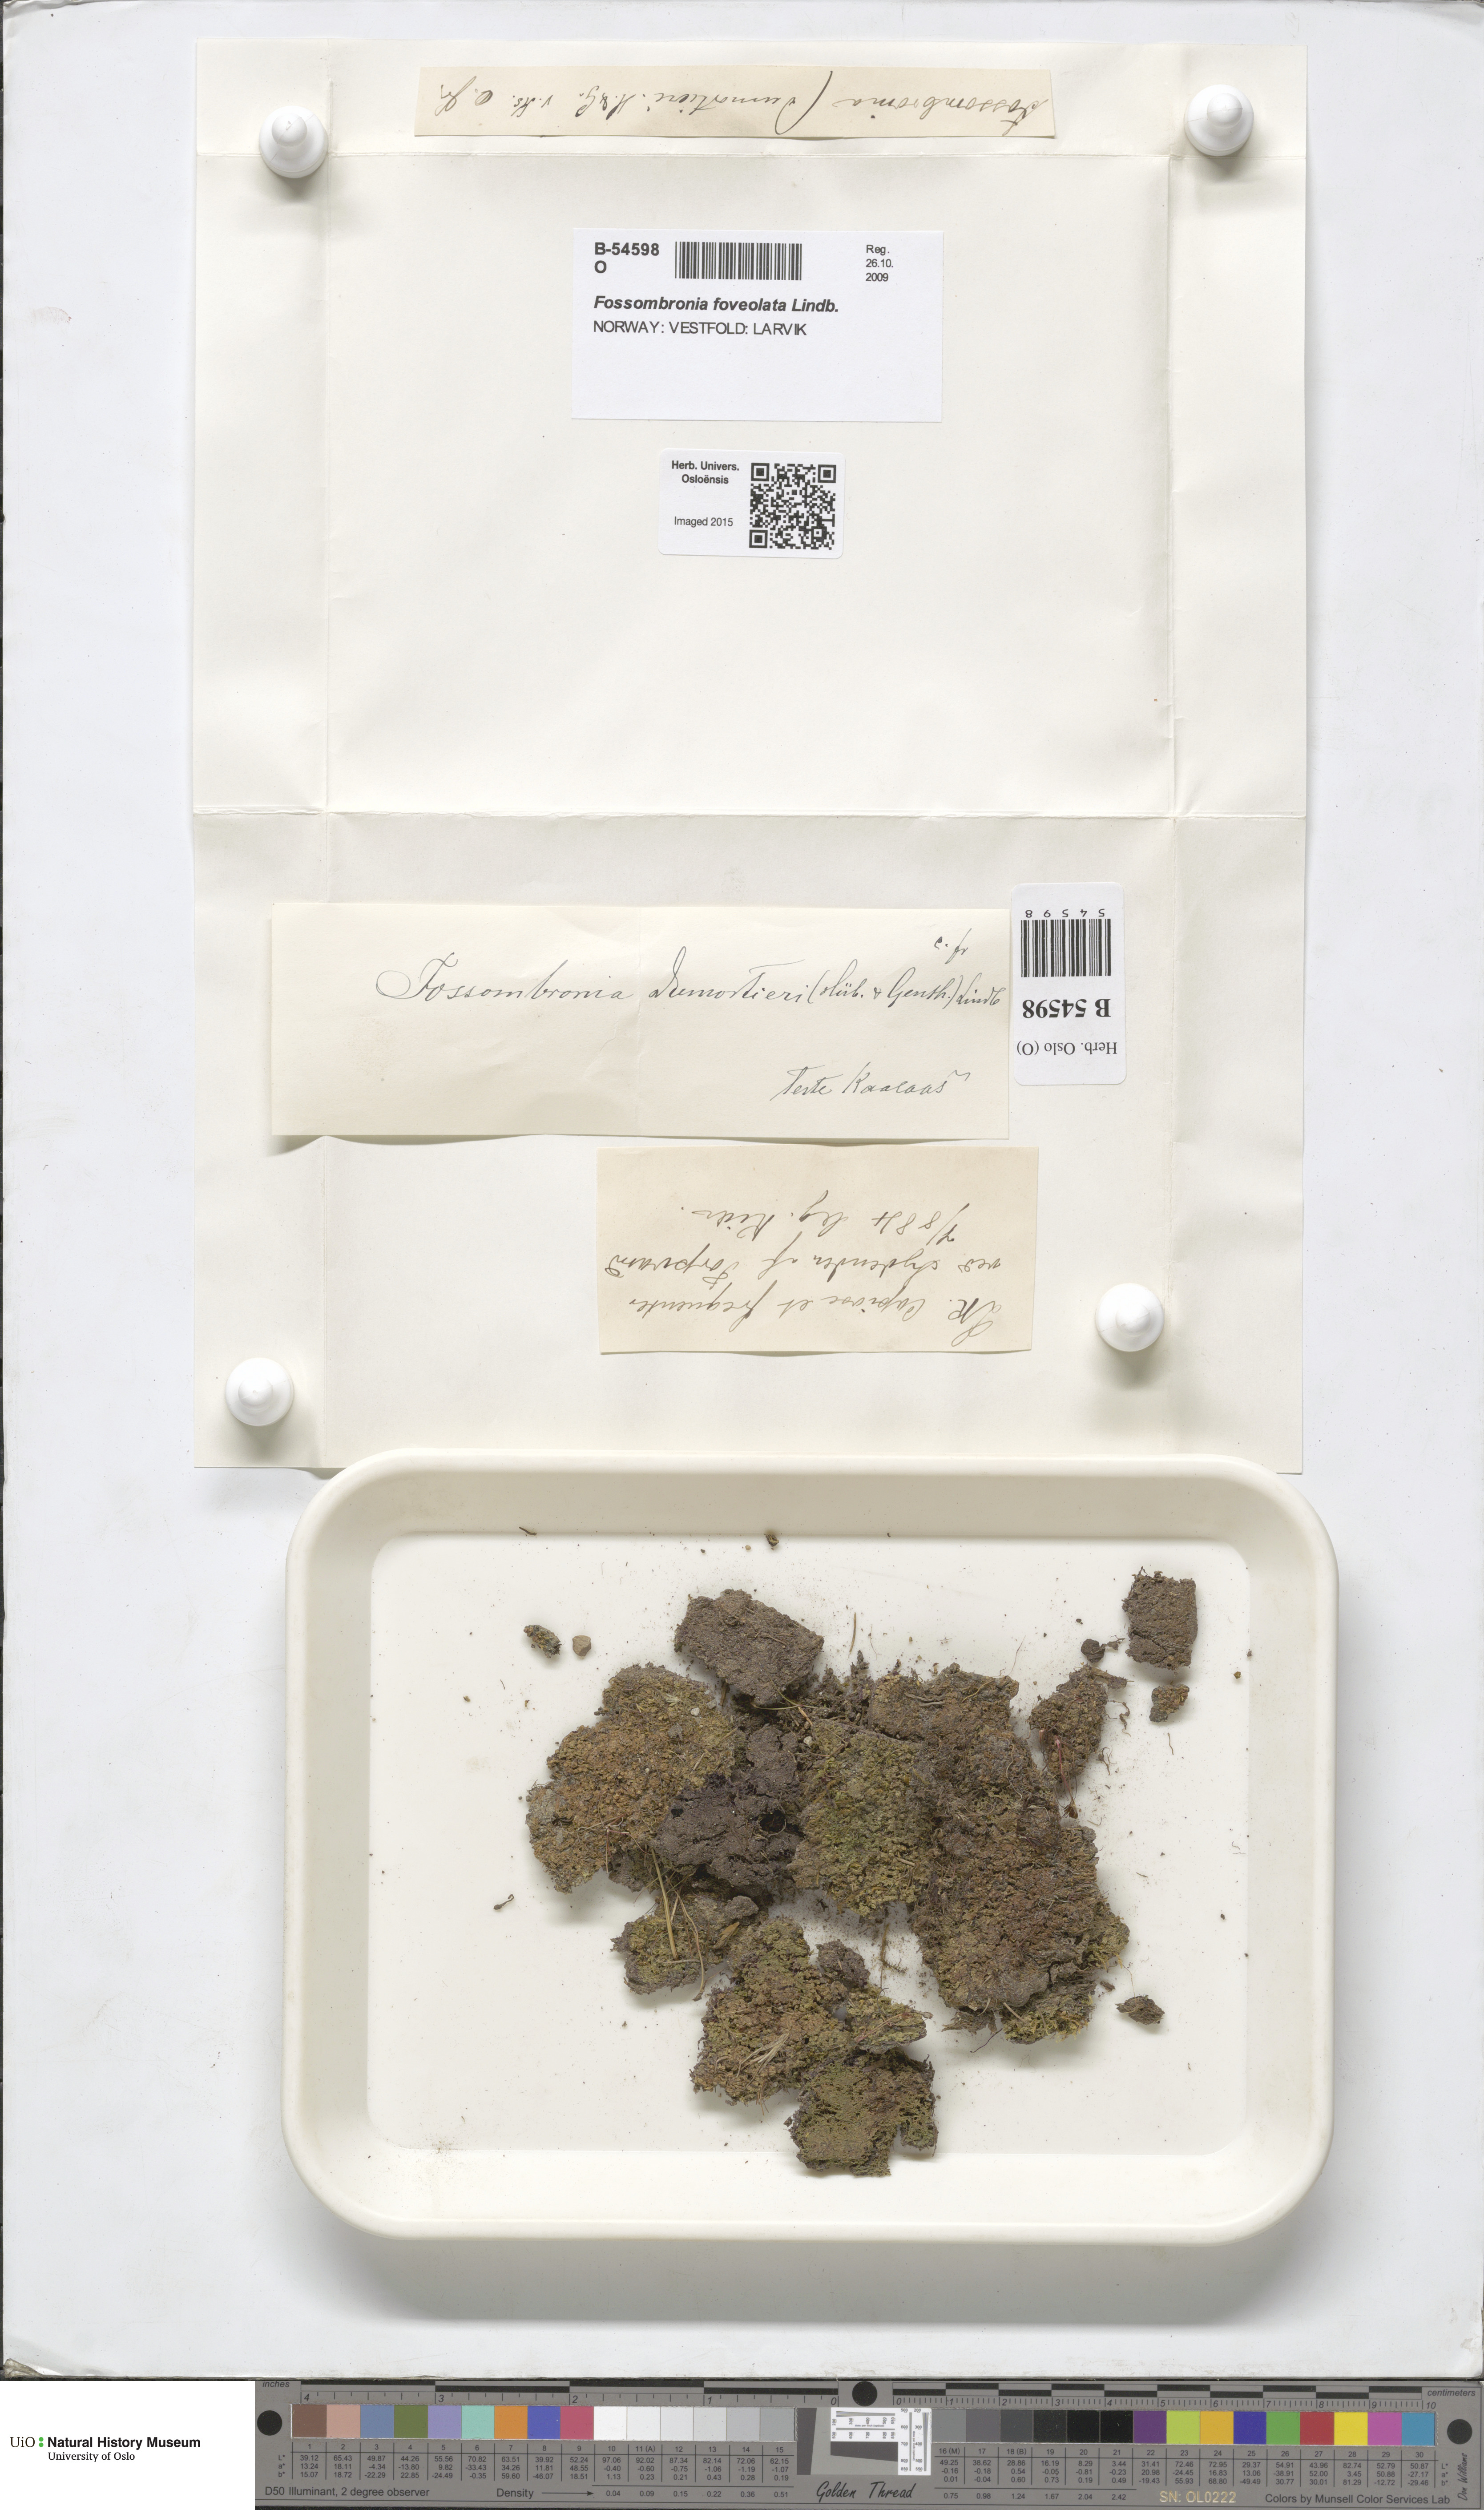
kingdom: Plantae
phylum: Marchantiophyta
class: Jungermanniopsida
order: Fossombroniales
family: Fossombroniaceae
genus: Fossombronia
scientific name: Fossombronia foveolata
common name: Pitted frillwort
